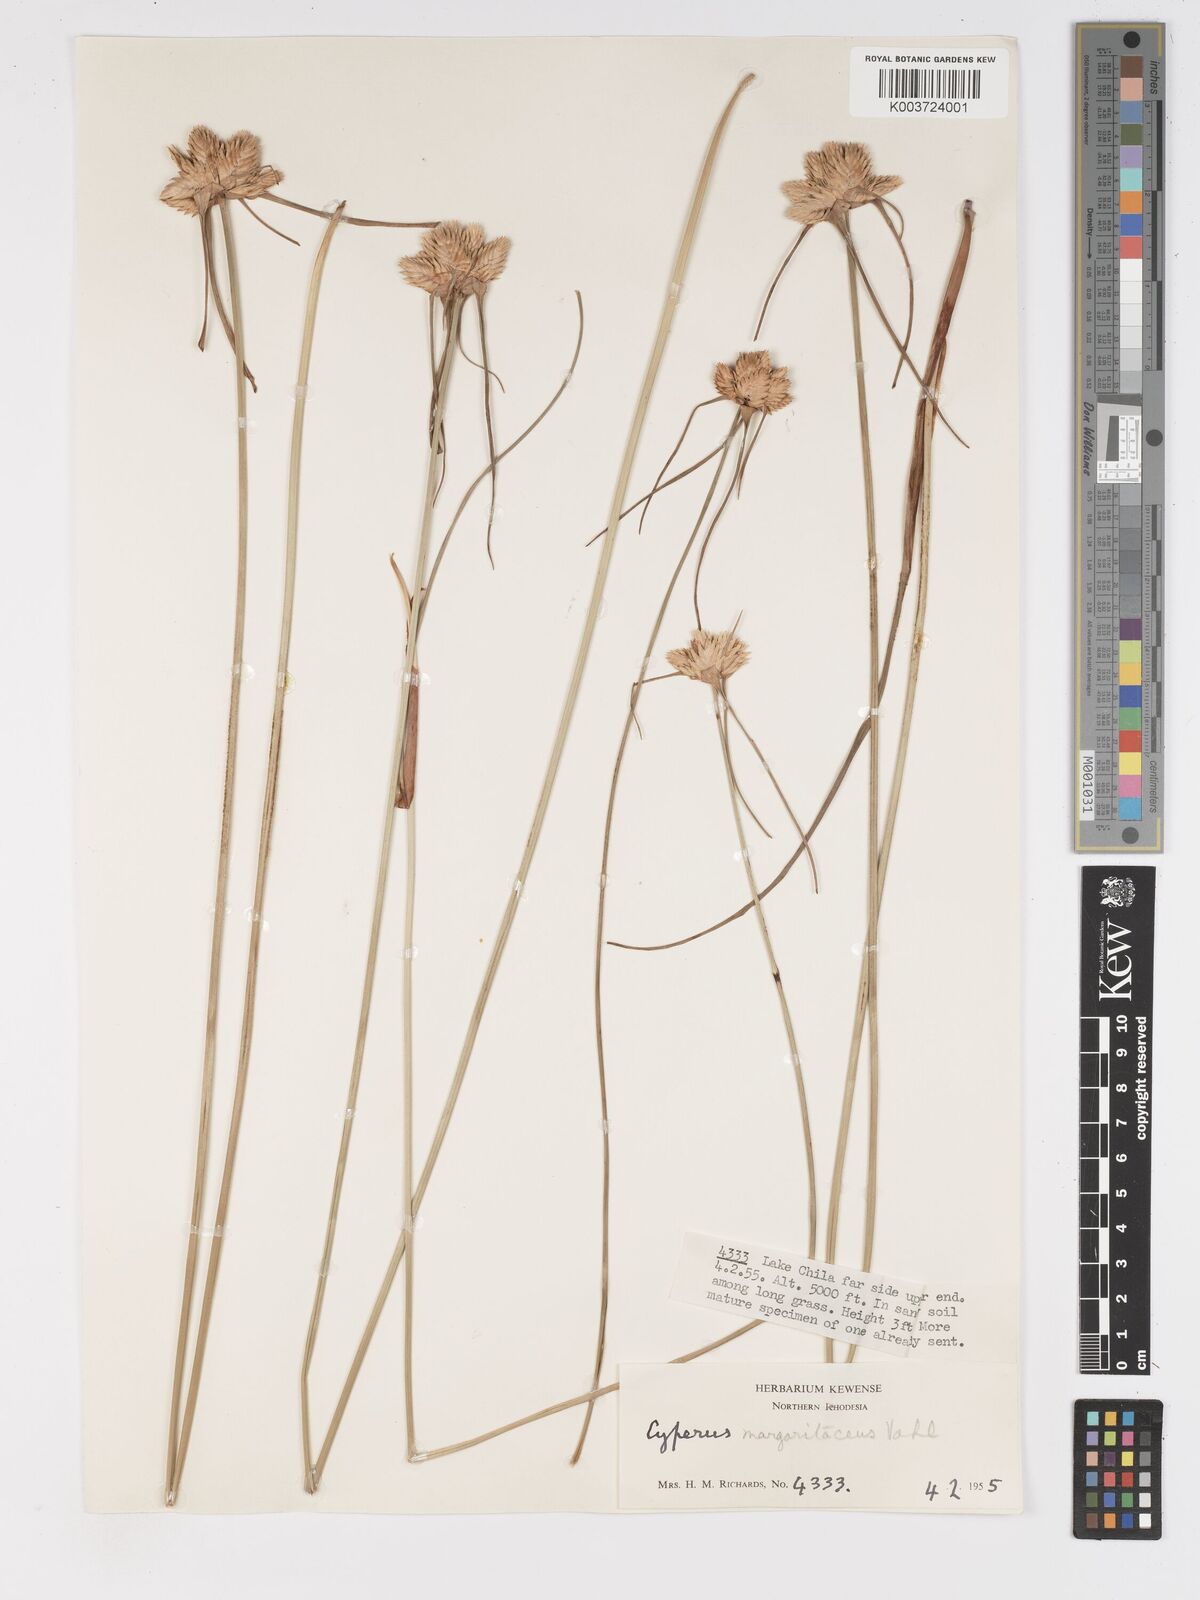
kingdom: Plantae
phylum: Tracheophyta
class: Liliopsida
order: Poales
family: Cyperaceae
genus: Cyperus
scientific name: Cyperus niveus
